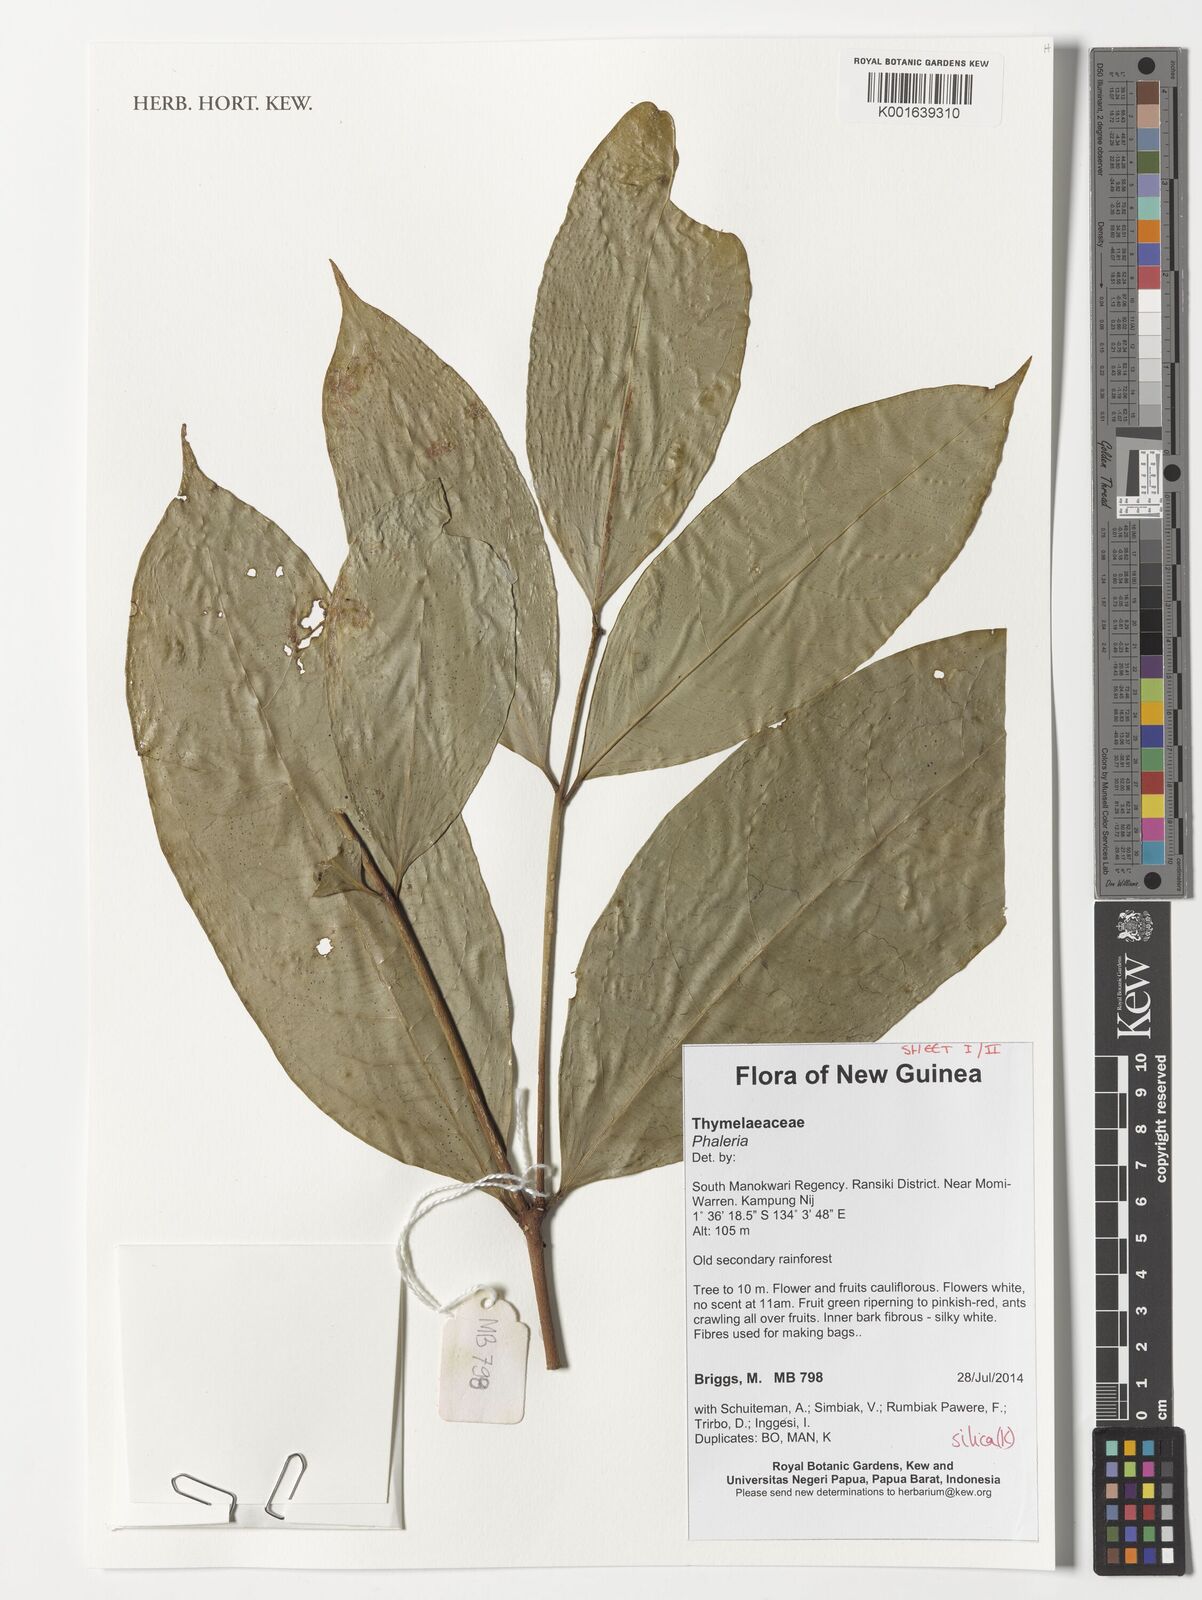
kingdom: Plantae
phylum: Tracheophyta
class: Magnoliopsida
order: Malvales
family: Thymelaeaceae
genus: Phaleria
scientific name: Phaleria
